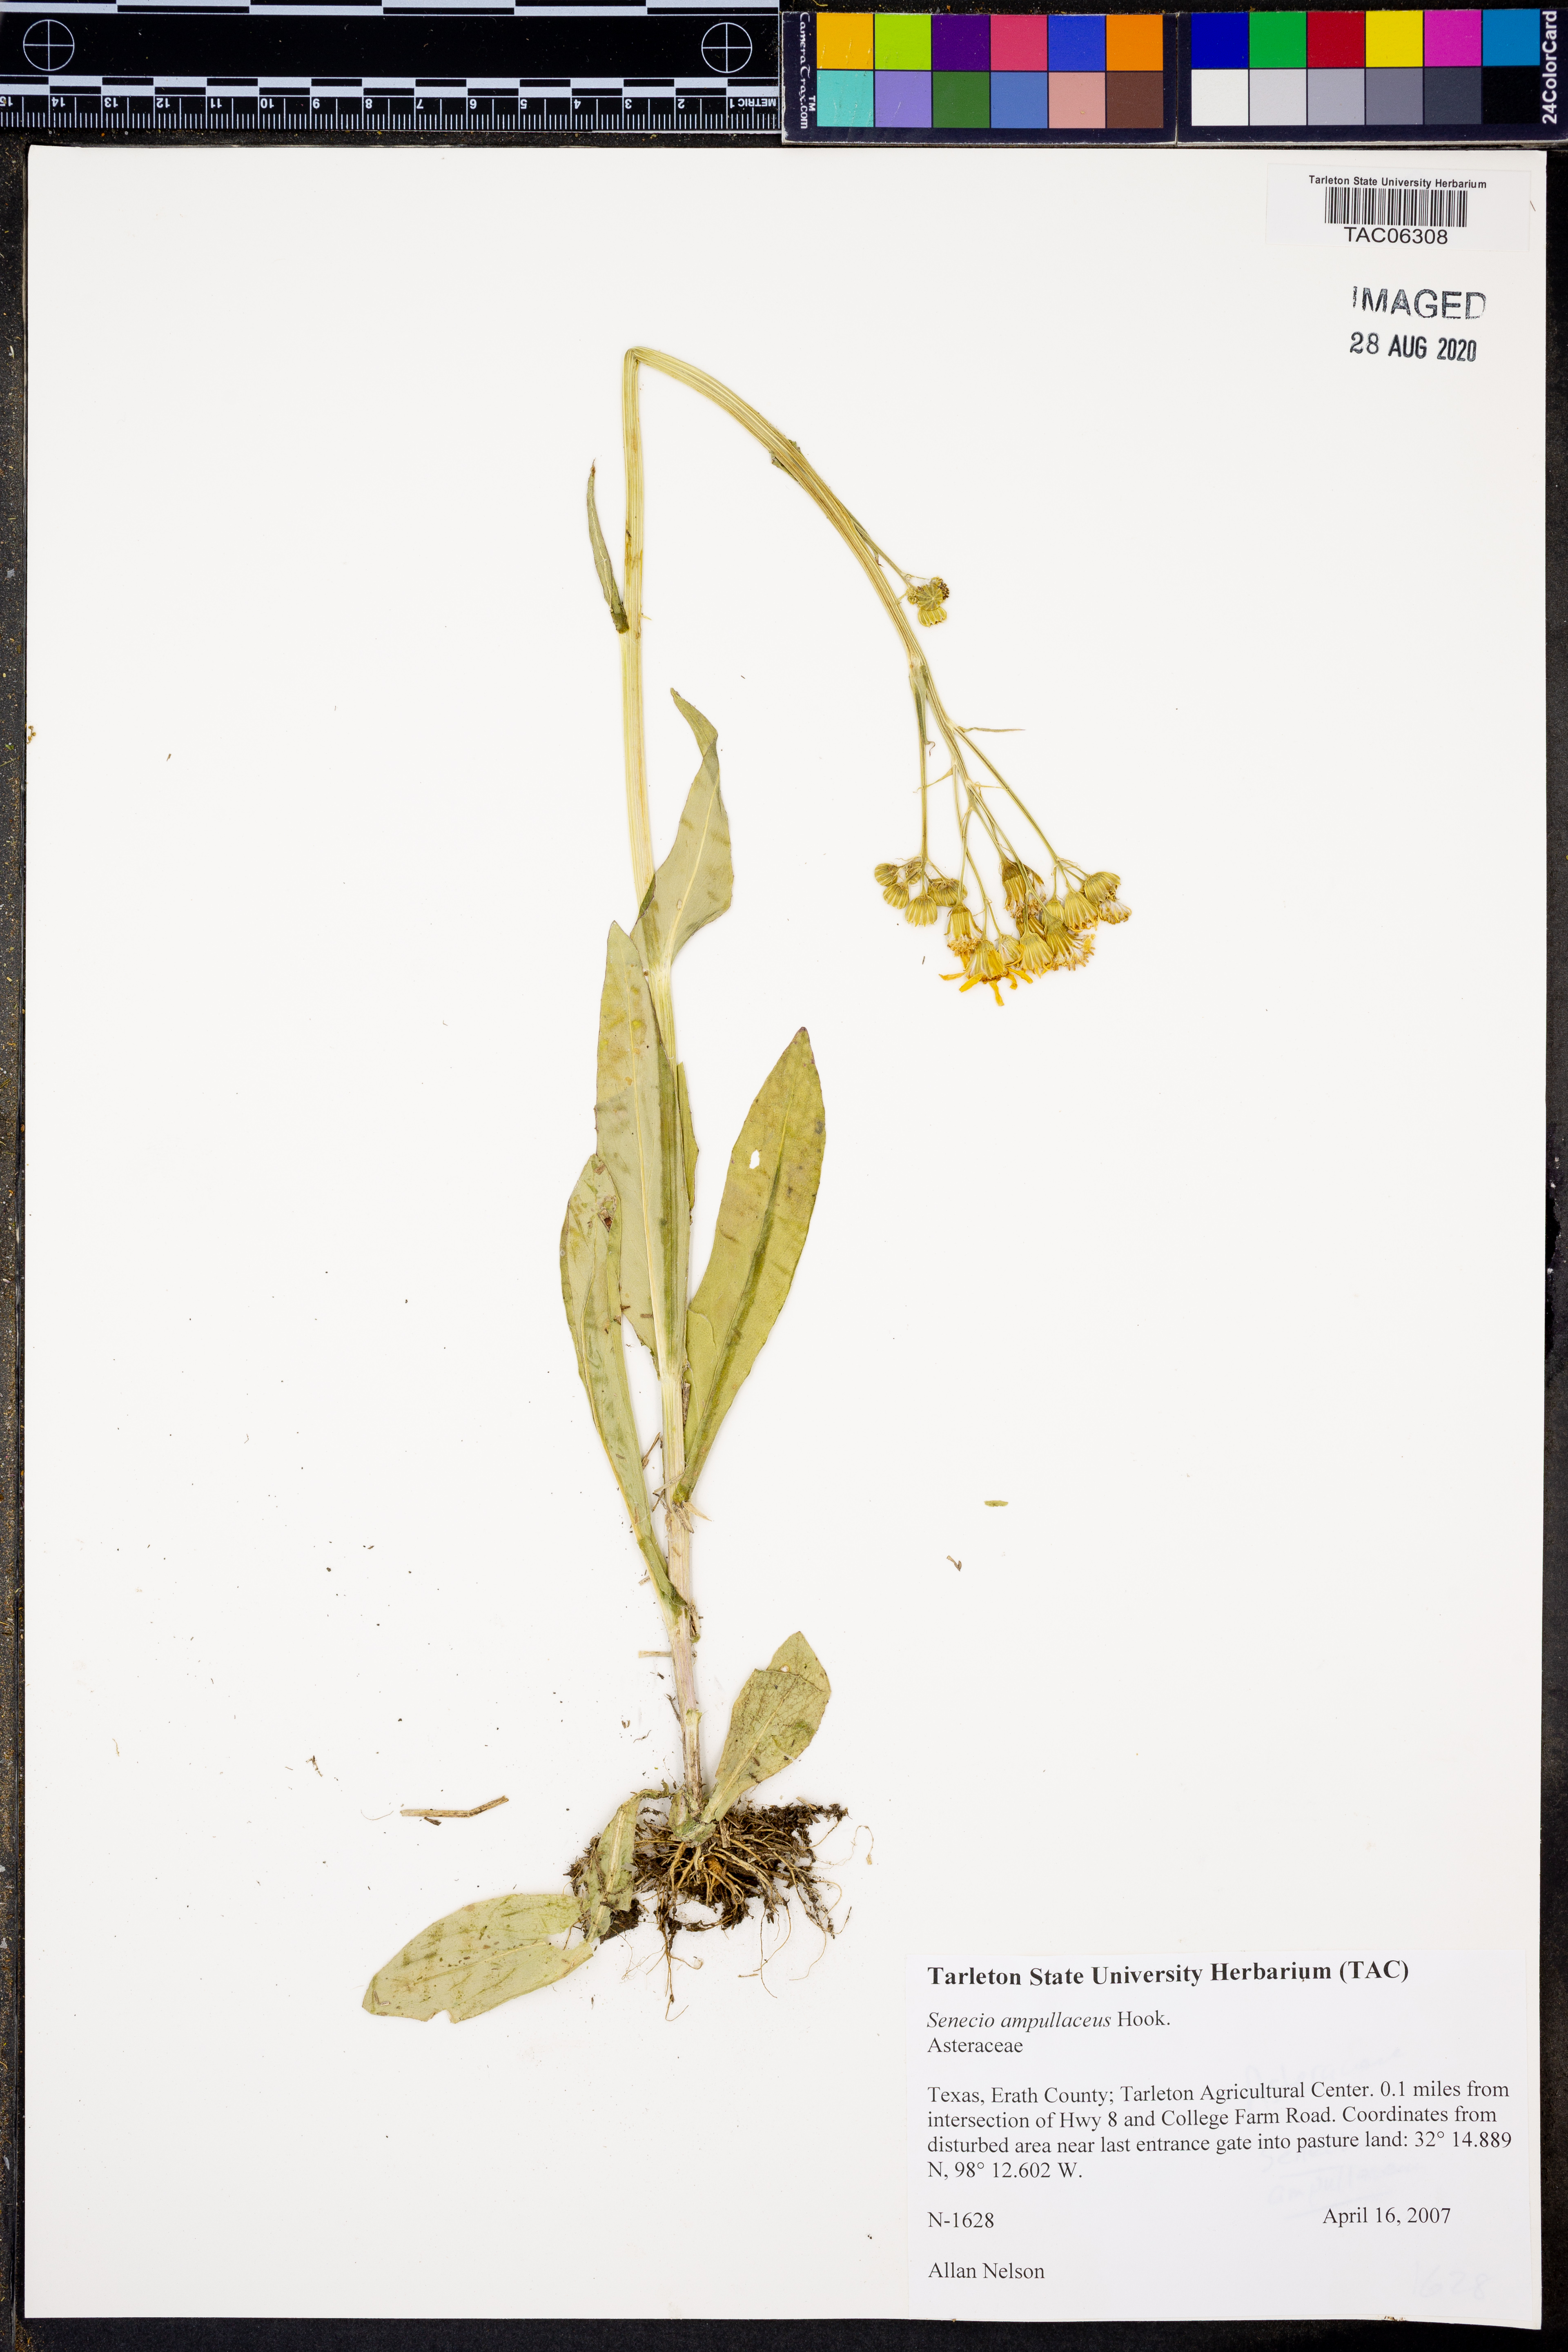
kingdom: Plantae
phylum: Tracheophyta
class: Magnoliopsida
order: Asterales
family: Asteraceae
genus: Senecio
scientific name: Senecio ampullaceus
